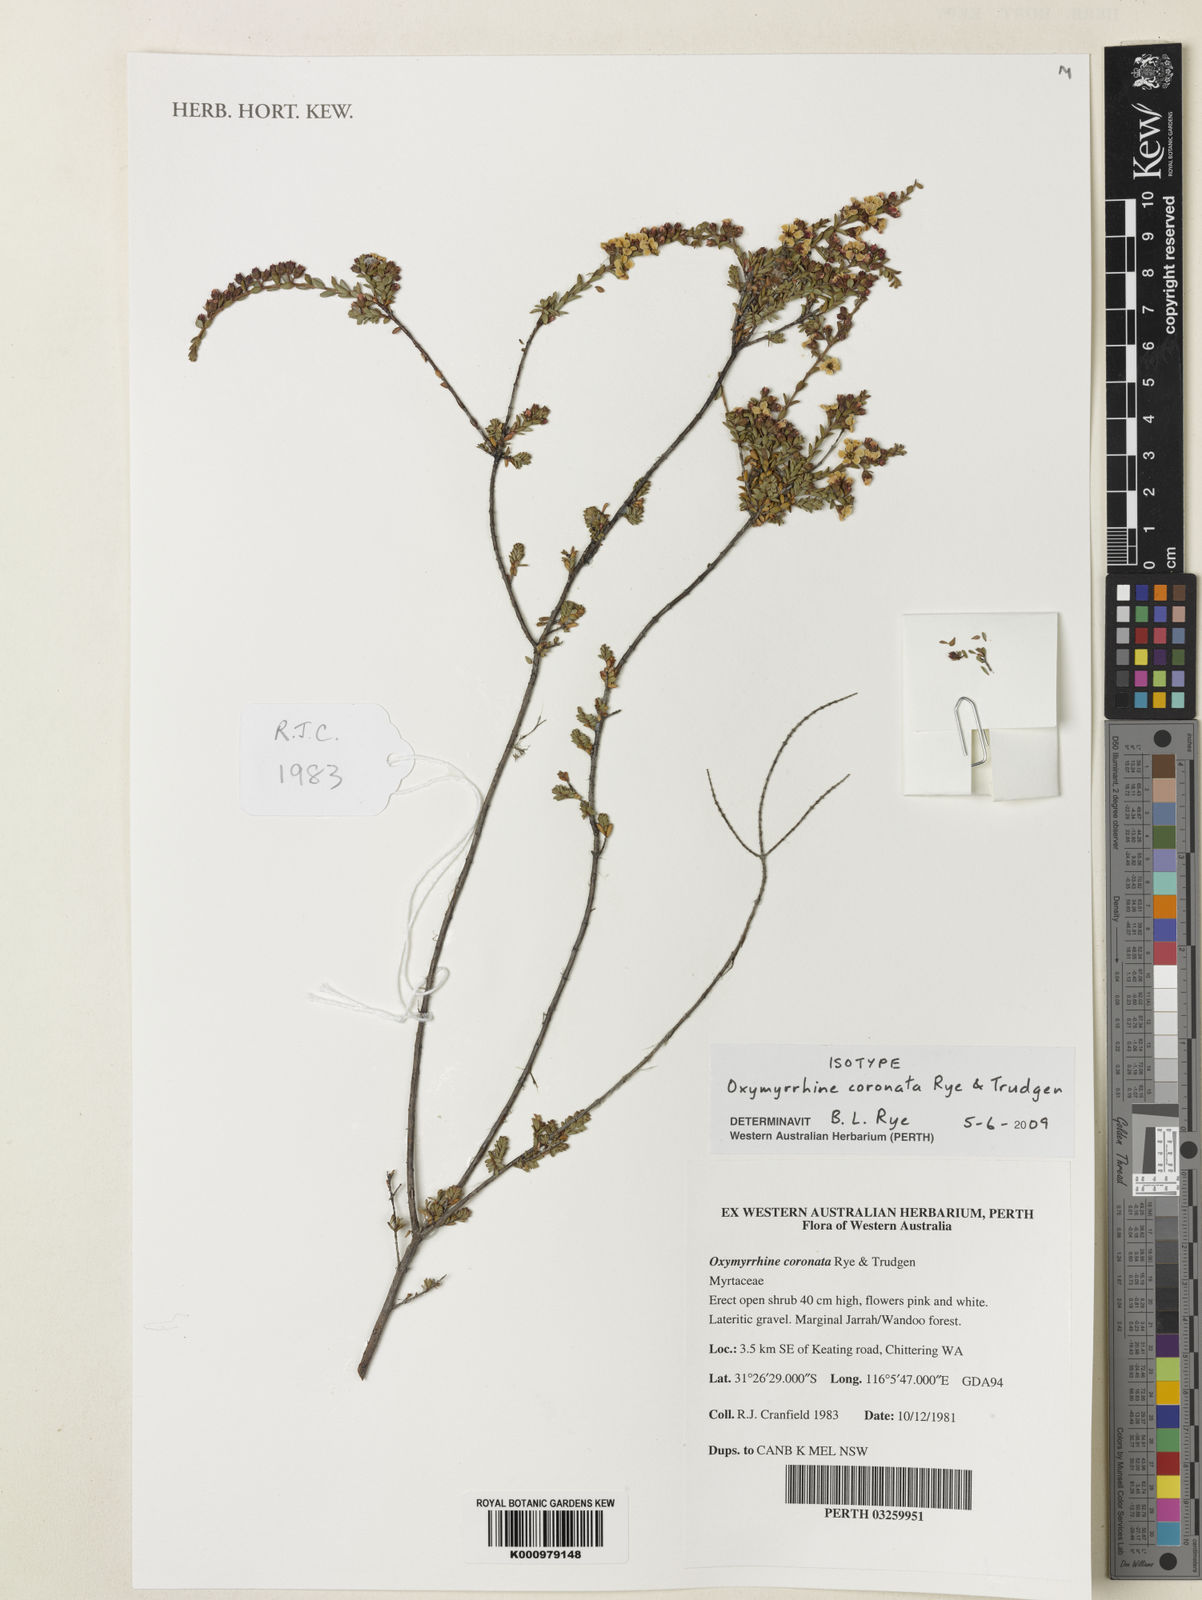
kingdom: Plantae
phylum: Tracheophyta
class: Magnoliopsida
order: Myrtales
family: Myrtaceae
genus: Oxymyrrhine
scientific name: Oxymyrrhine coronata
